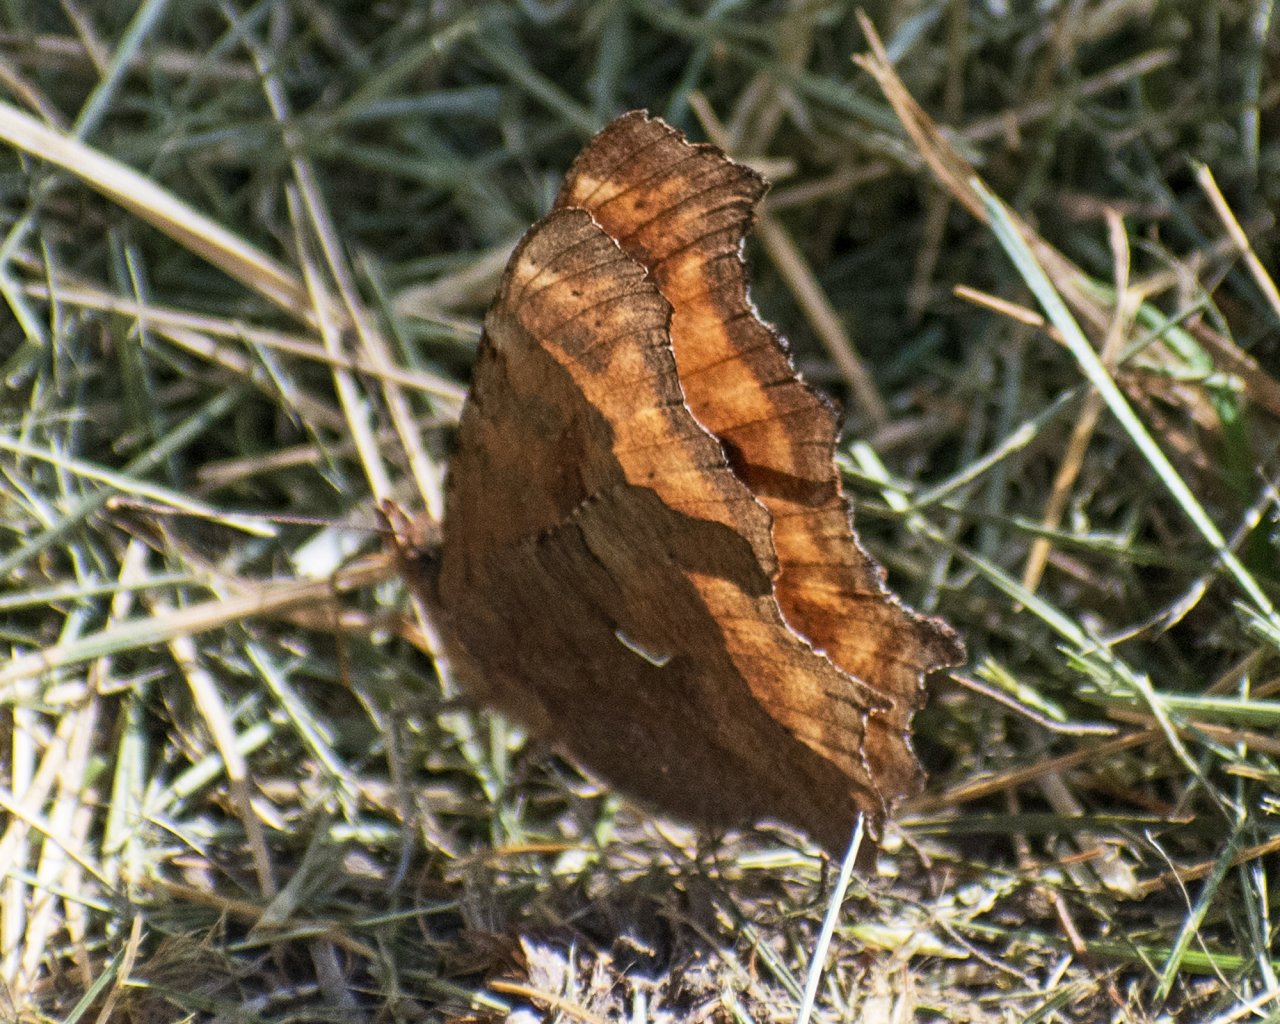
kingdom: Animalia
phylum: Arthropoda
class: Insecta
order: Lepidoptera
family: Nymphalidae
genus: Polygonia
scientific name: Polygonia satyrus
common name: Satyr Comma
